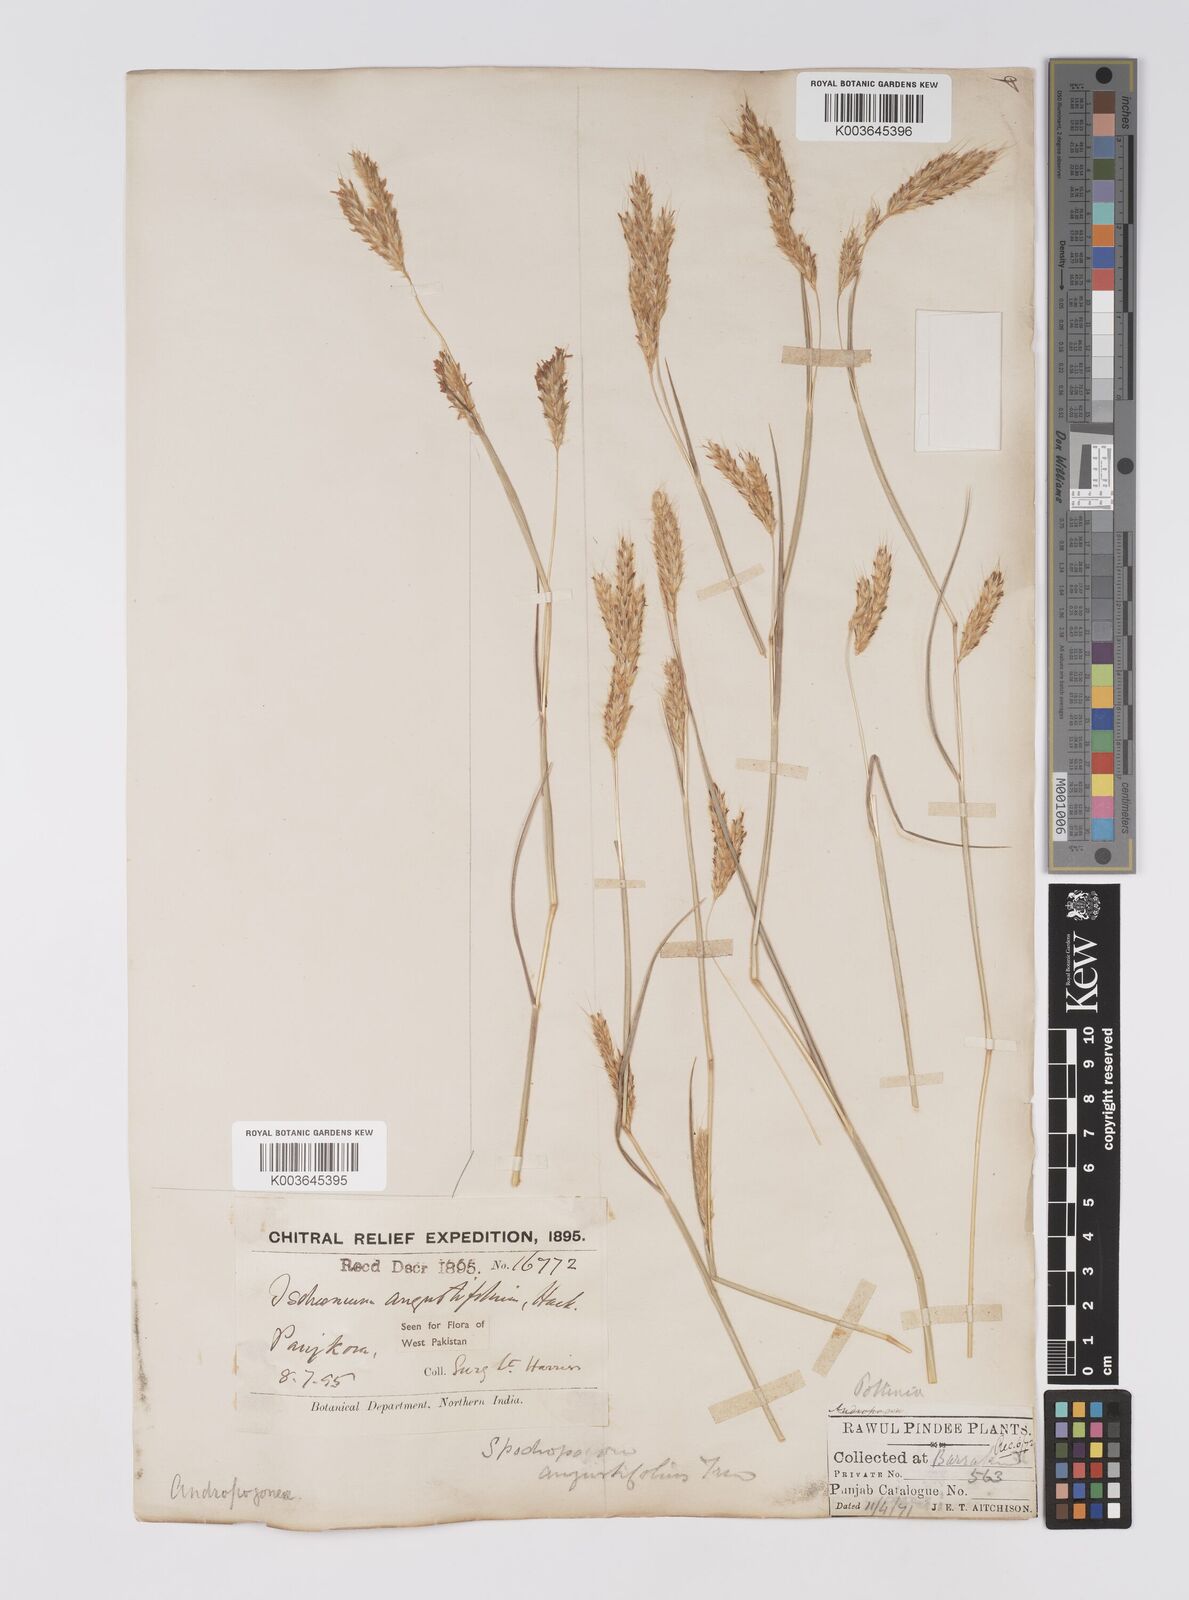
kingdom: Plantae
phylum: Tracheophyta
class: Liliopsida
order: Poales
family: Poaceae
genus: Eulaliopsis
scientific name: Eulaliopsis binata
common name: Baib grass
